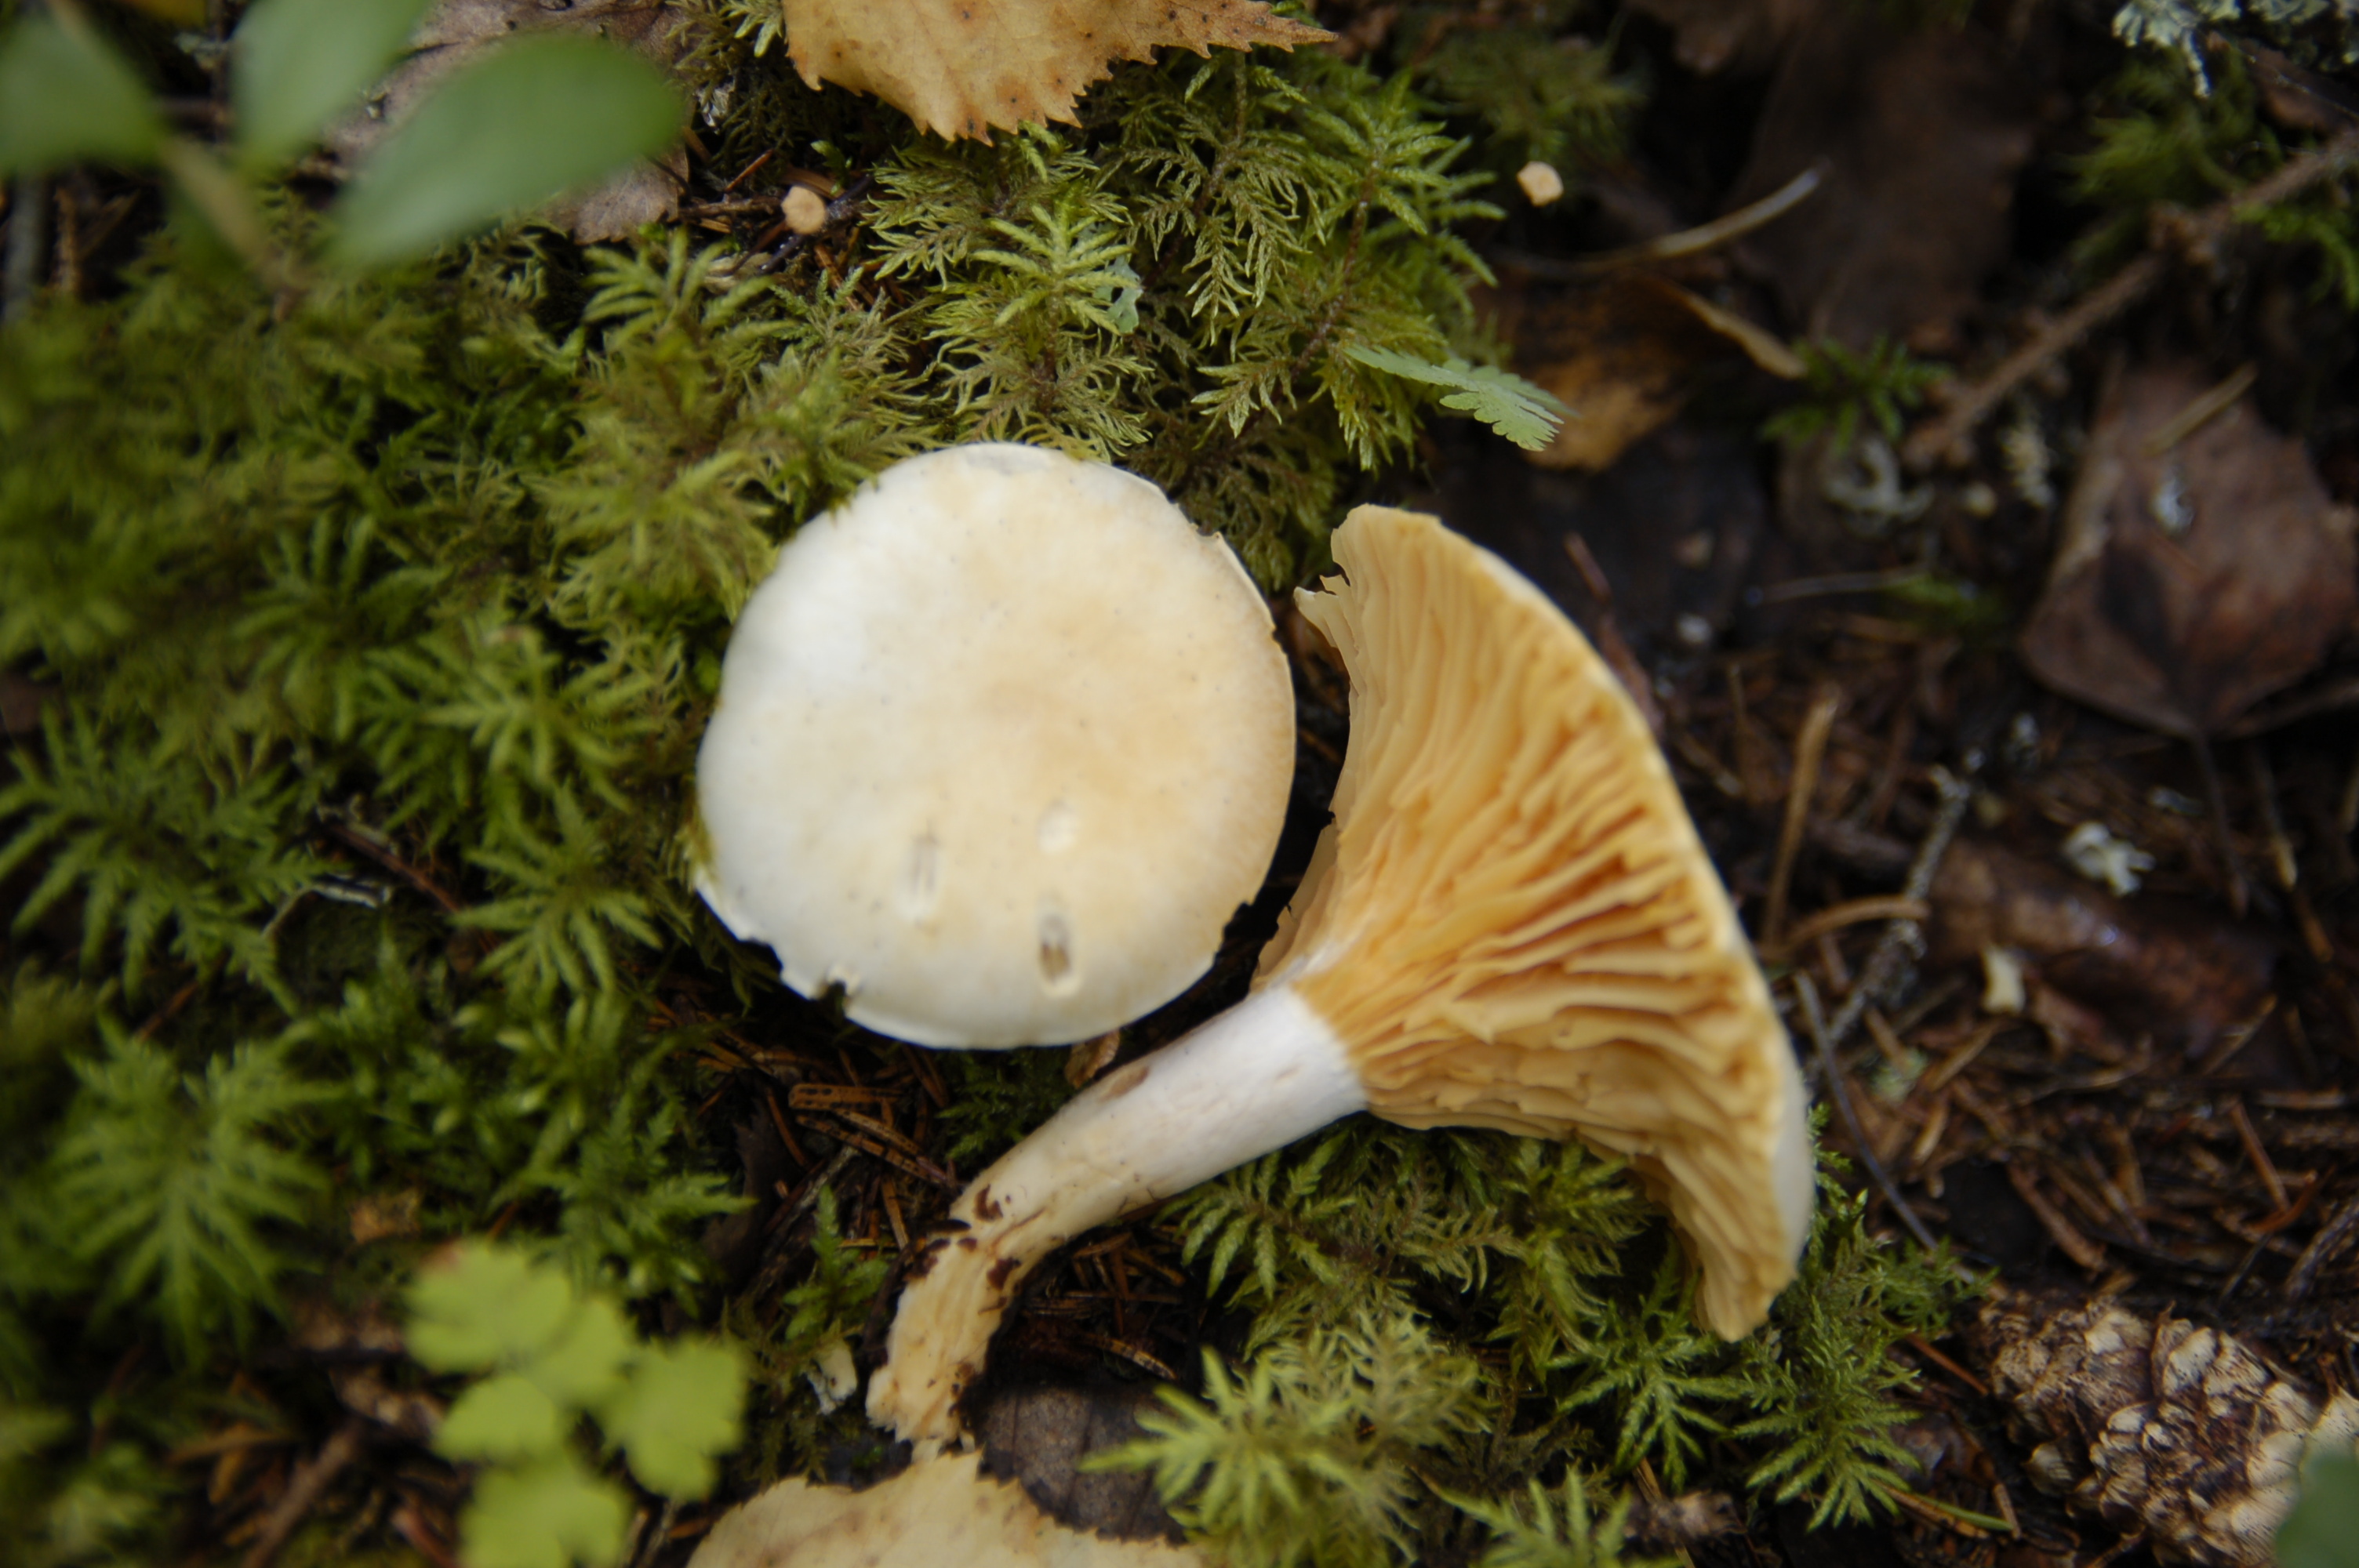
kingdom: Fungi
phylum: Basidiomycota
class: Agaricomycetes
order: Agaricales
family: Hygrophoraceae
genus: Cuphophyllus
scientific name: Cuphophyllus pratensis
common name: Meadow waxcap
